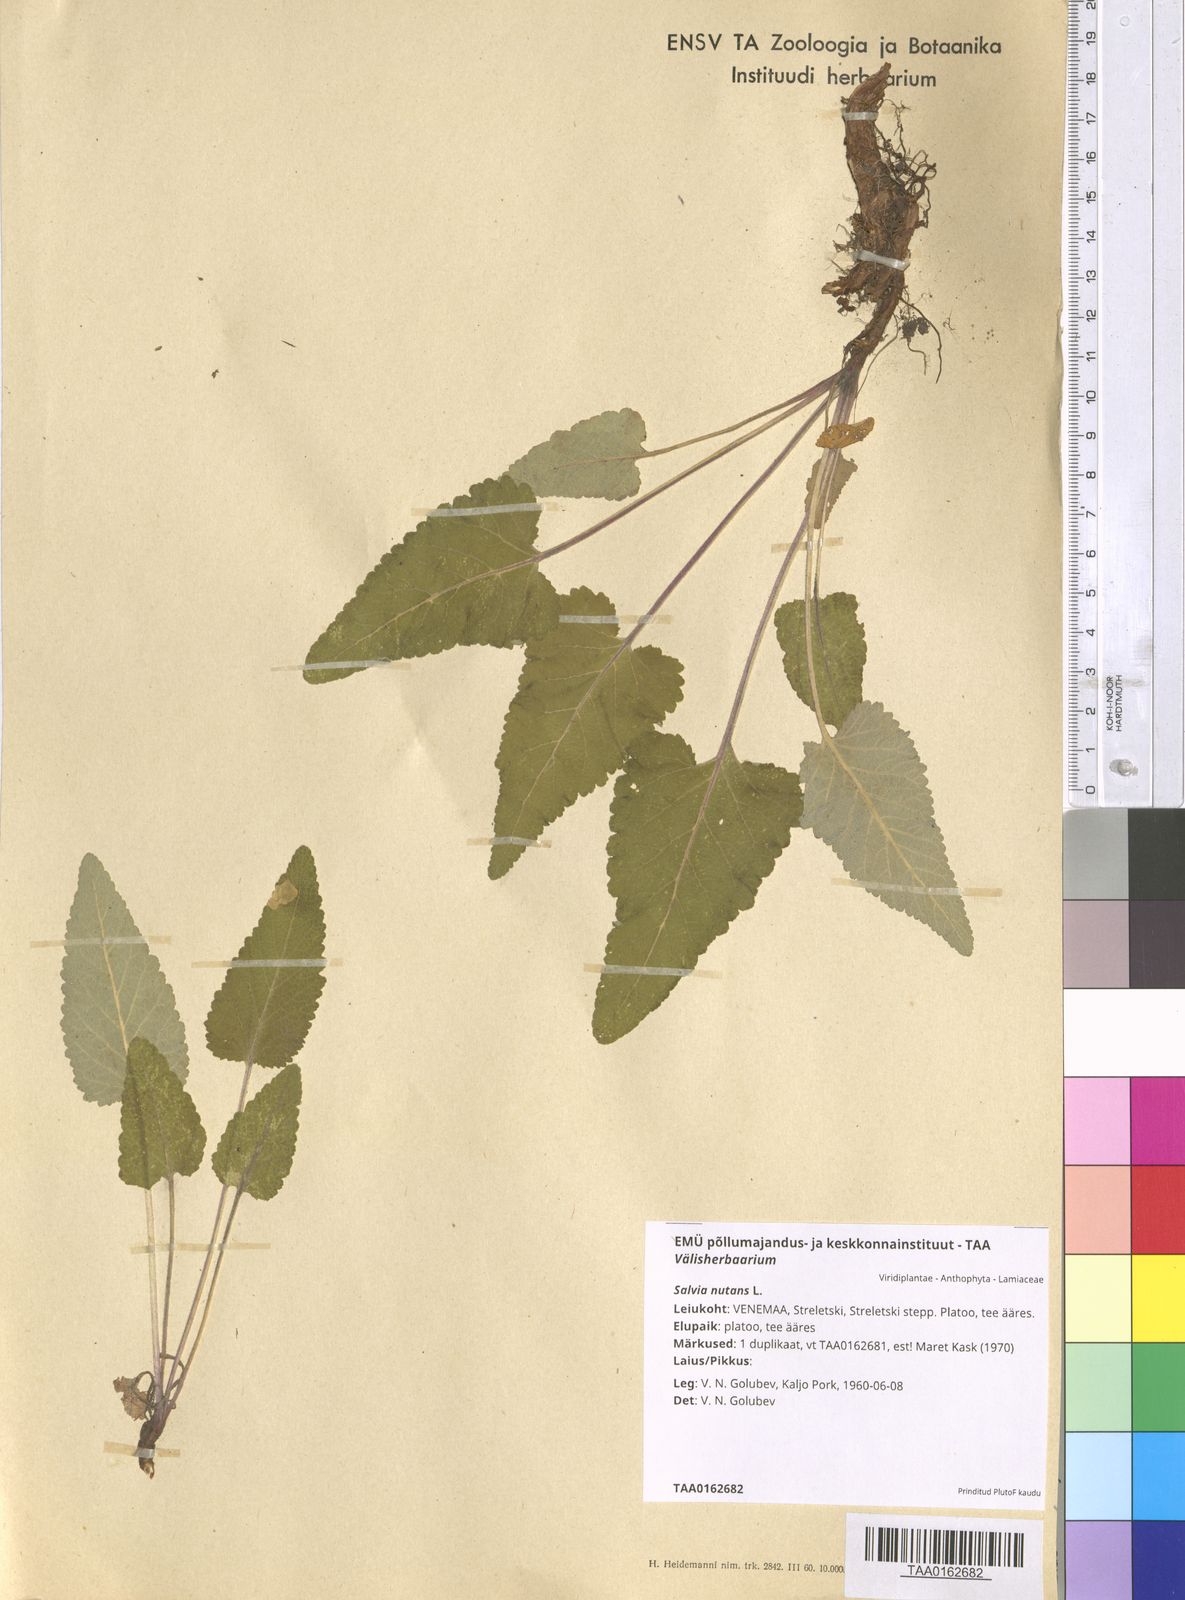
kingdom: Plantae
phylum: Tracheophyta
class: Magnoliopsida
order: Lamiales
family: Lamiaceae
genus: Salvia
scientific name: Salvia nutans
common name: Nodding sage
